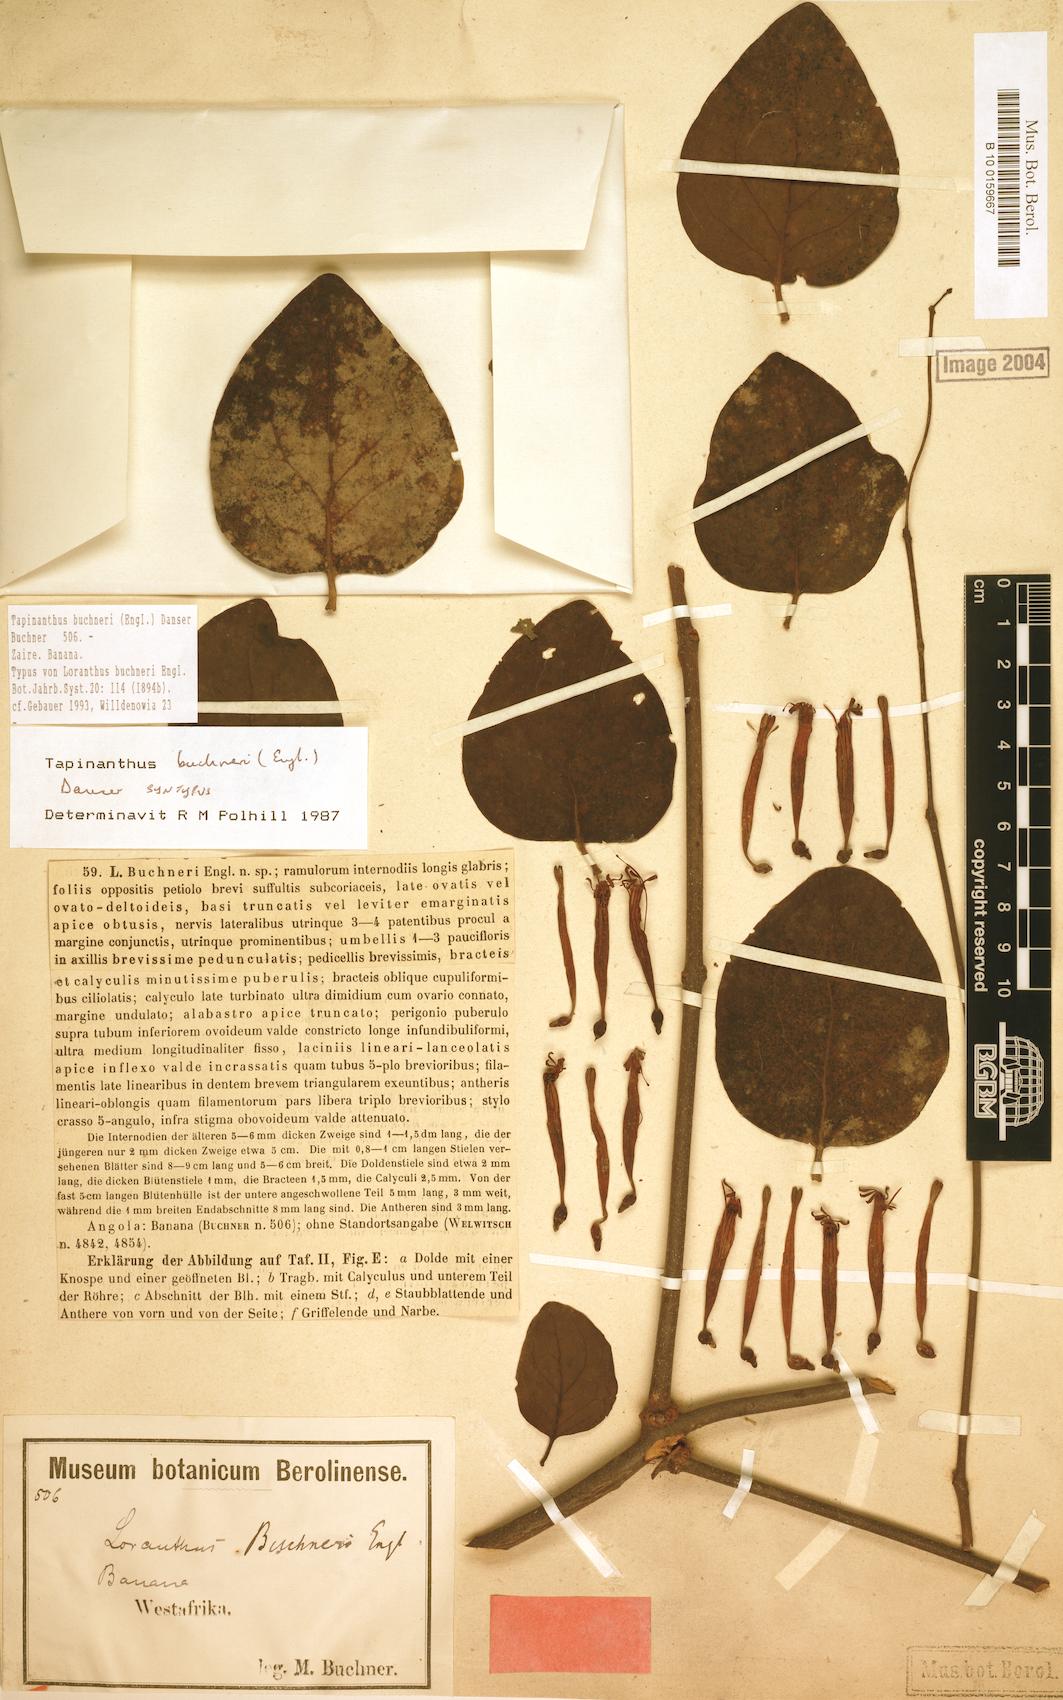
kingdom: Plantae
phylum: Tracheophyta
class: Magnoliopsida
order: Santalales
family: Loranthaceae
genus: Tapinanthus
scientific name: Tapinanthus buchneri
